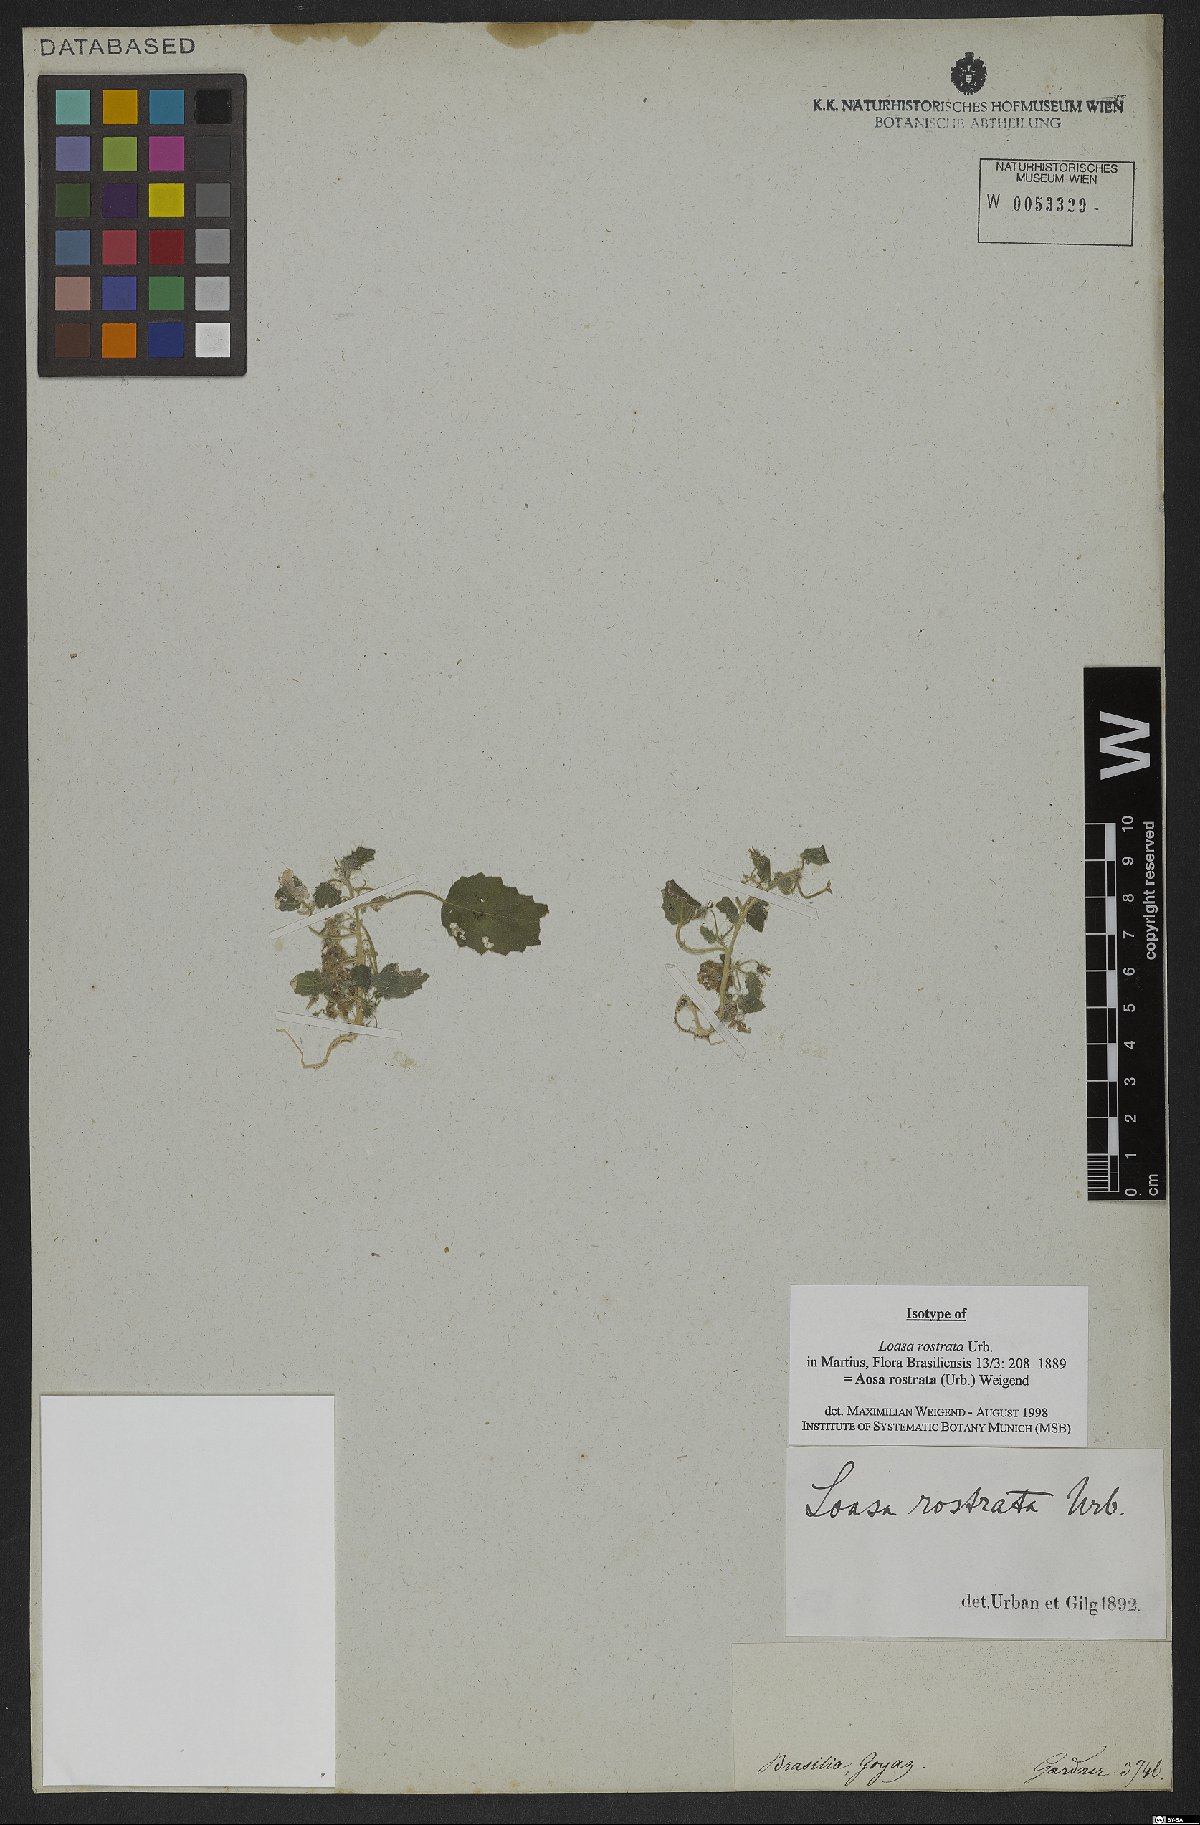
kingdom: Plantae
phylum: Tracheophyta
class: Magnoliopsida
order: Cornales
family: Loasaceae
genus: Aosa
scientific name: Aosa rostrata
